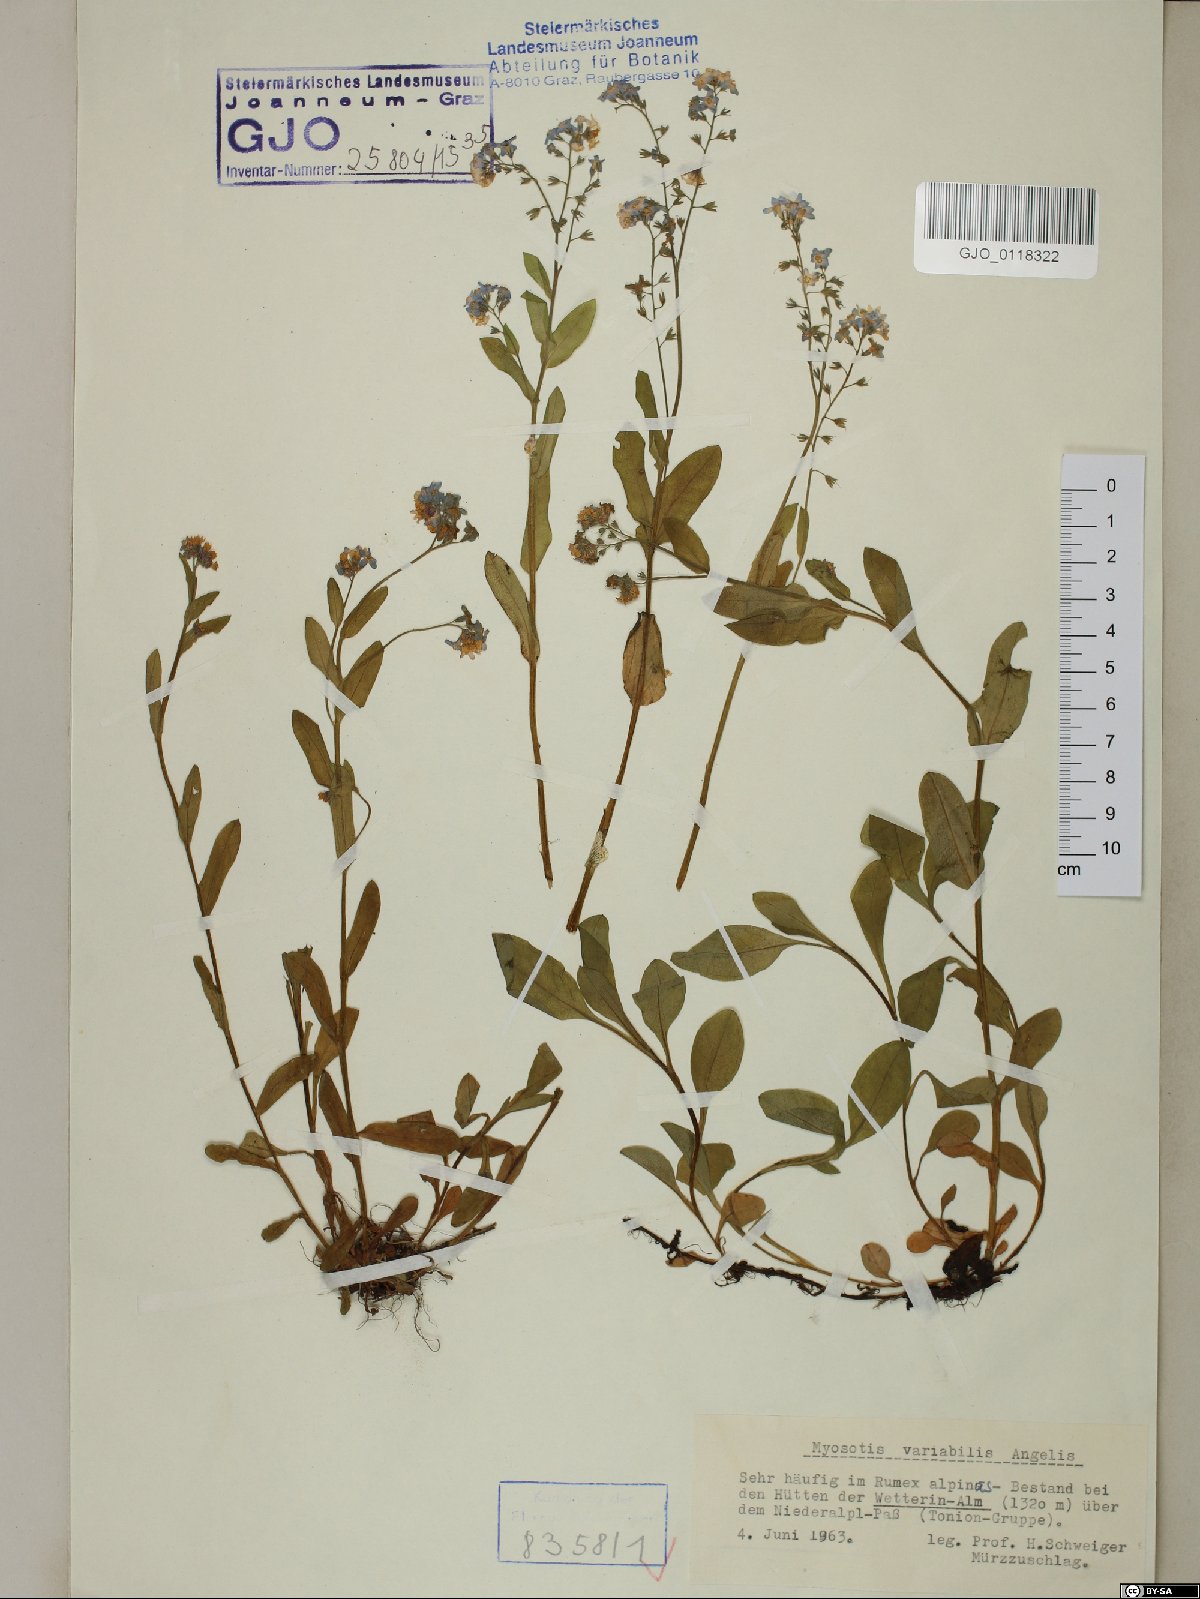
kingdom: Plantae
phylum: Tracheophyta
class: Magnoliopsida
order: Boraginales
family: Boraginaceae
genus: Myosotis
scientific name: Myosotis decumbens
